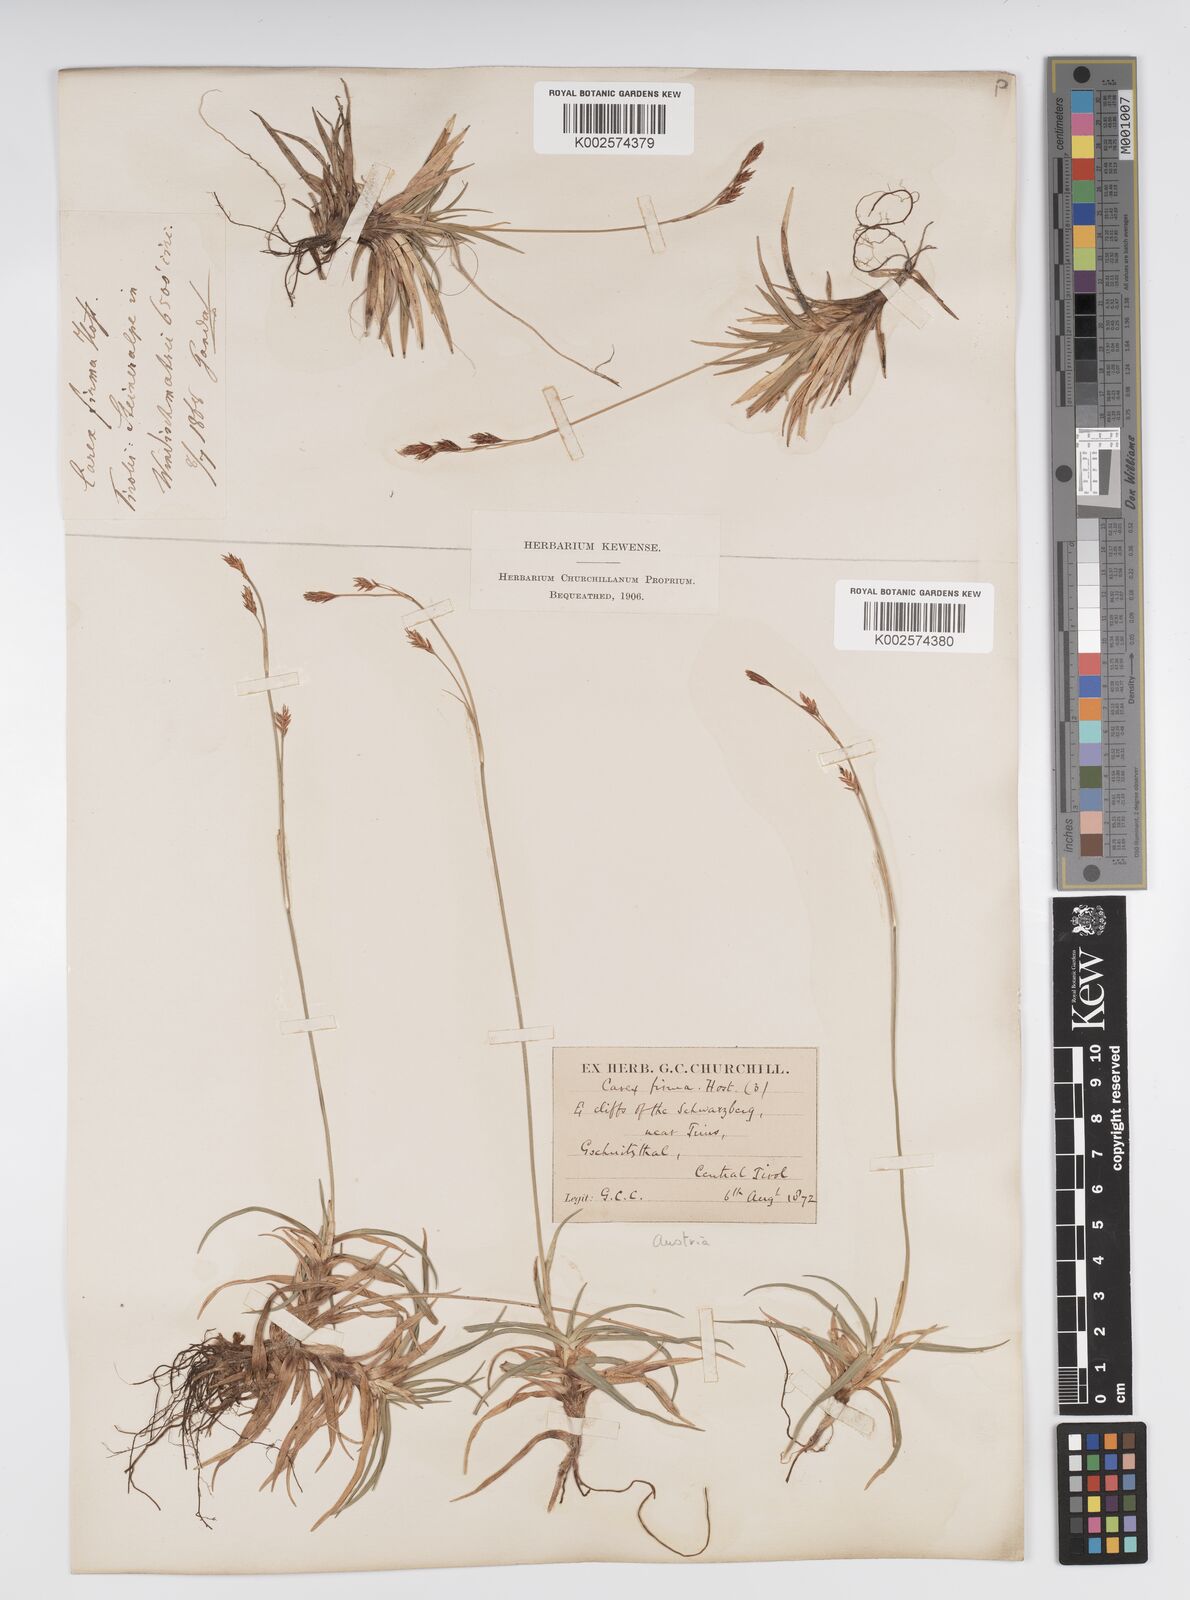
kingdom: Plantae
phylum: Tracheophyta
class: Liliopsida
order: Poales
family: Cyperaceae
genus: Carex
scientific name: Carex firma
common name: Dwarf pillow sedge
